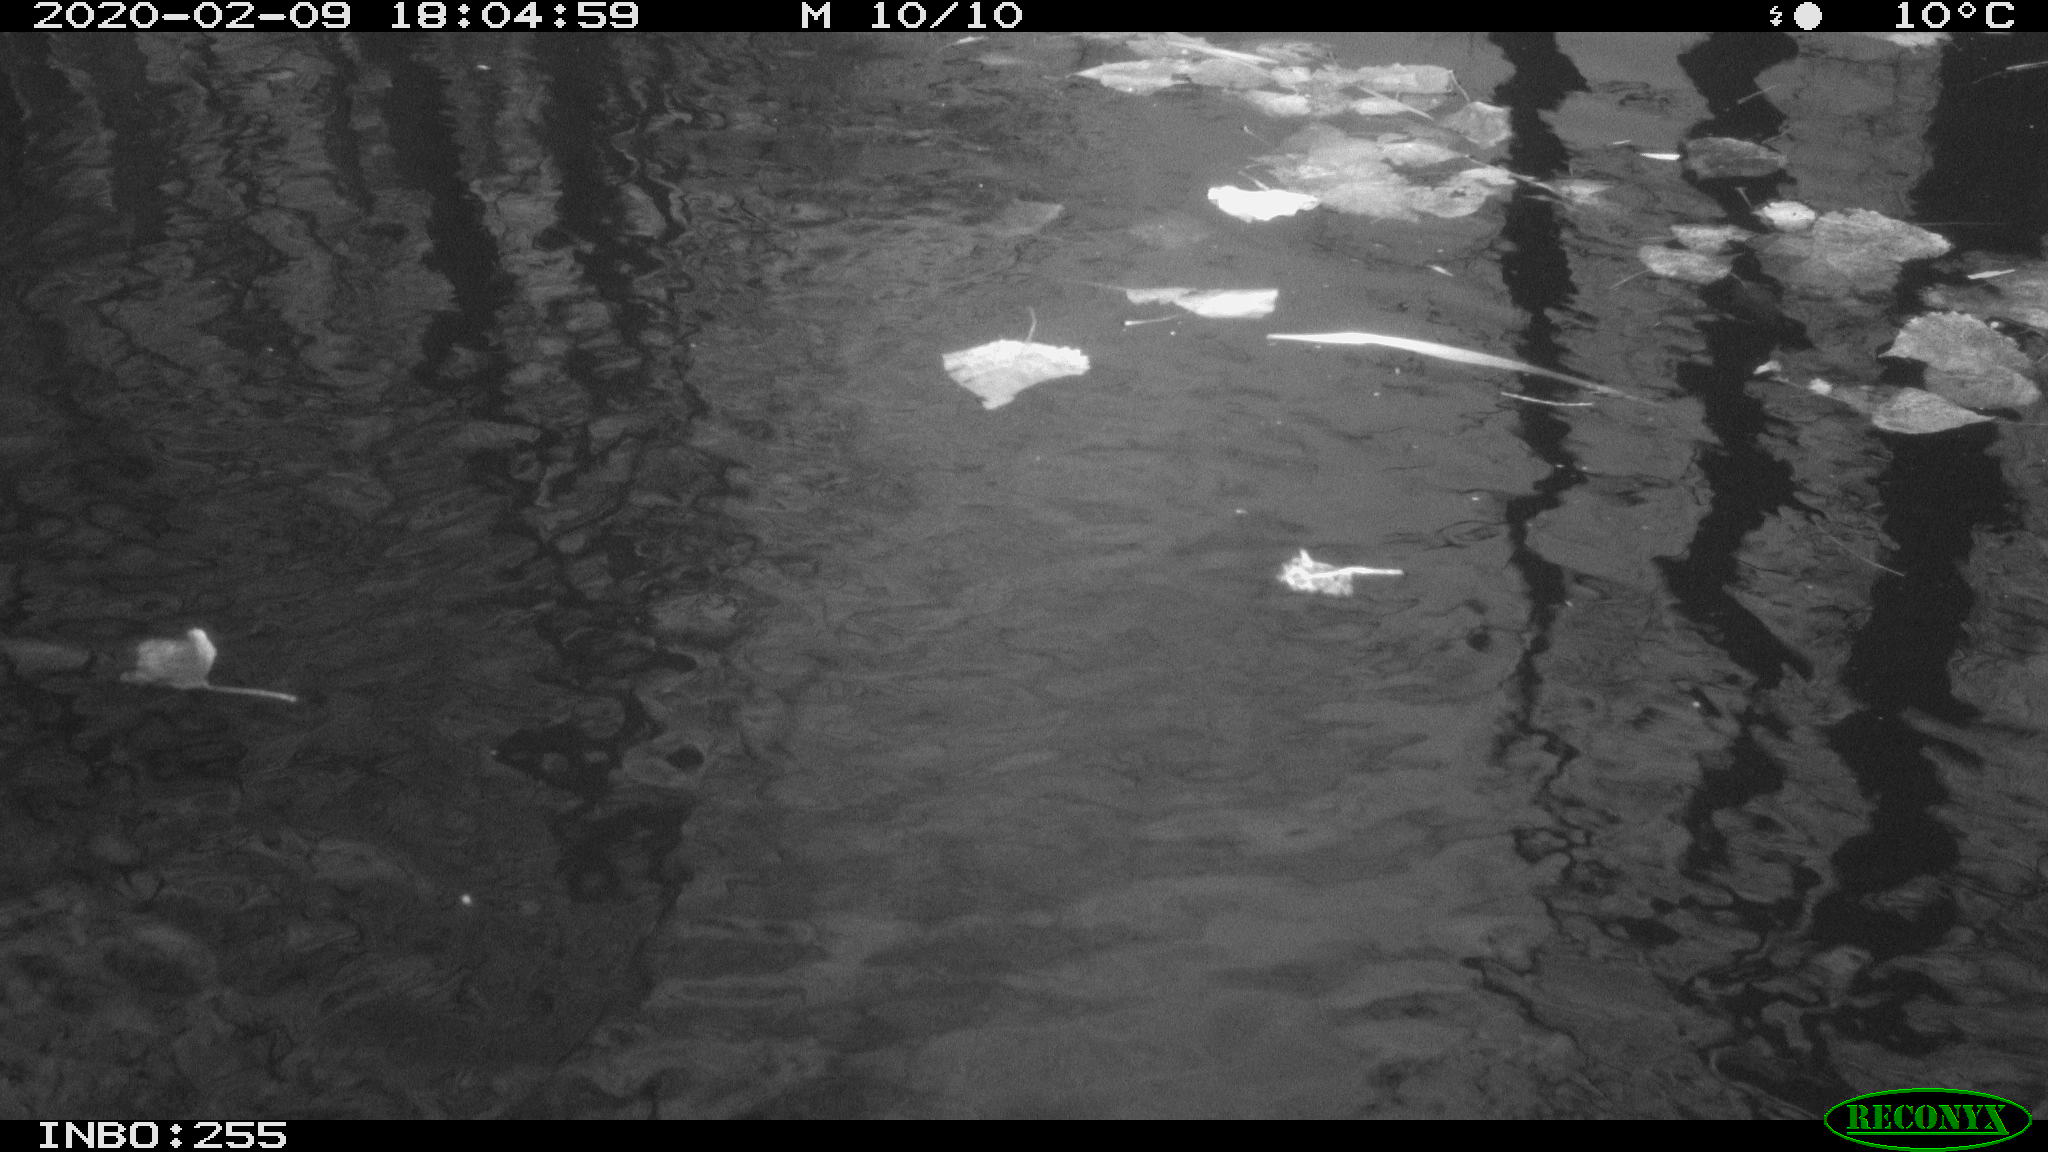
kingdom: Animalia
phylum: Chordata
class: Aves
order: Gruiformes
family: Rallidae
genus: Fulica
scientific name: Fulica atra
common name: Eurasian coot
